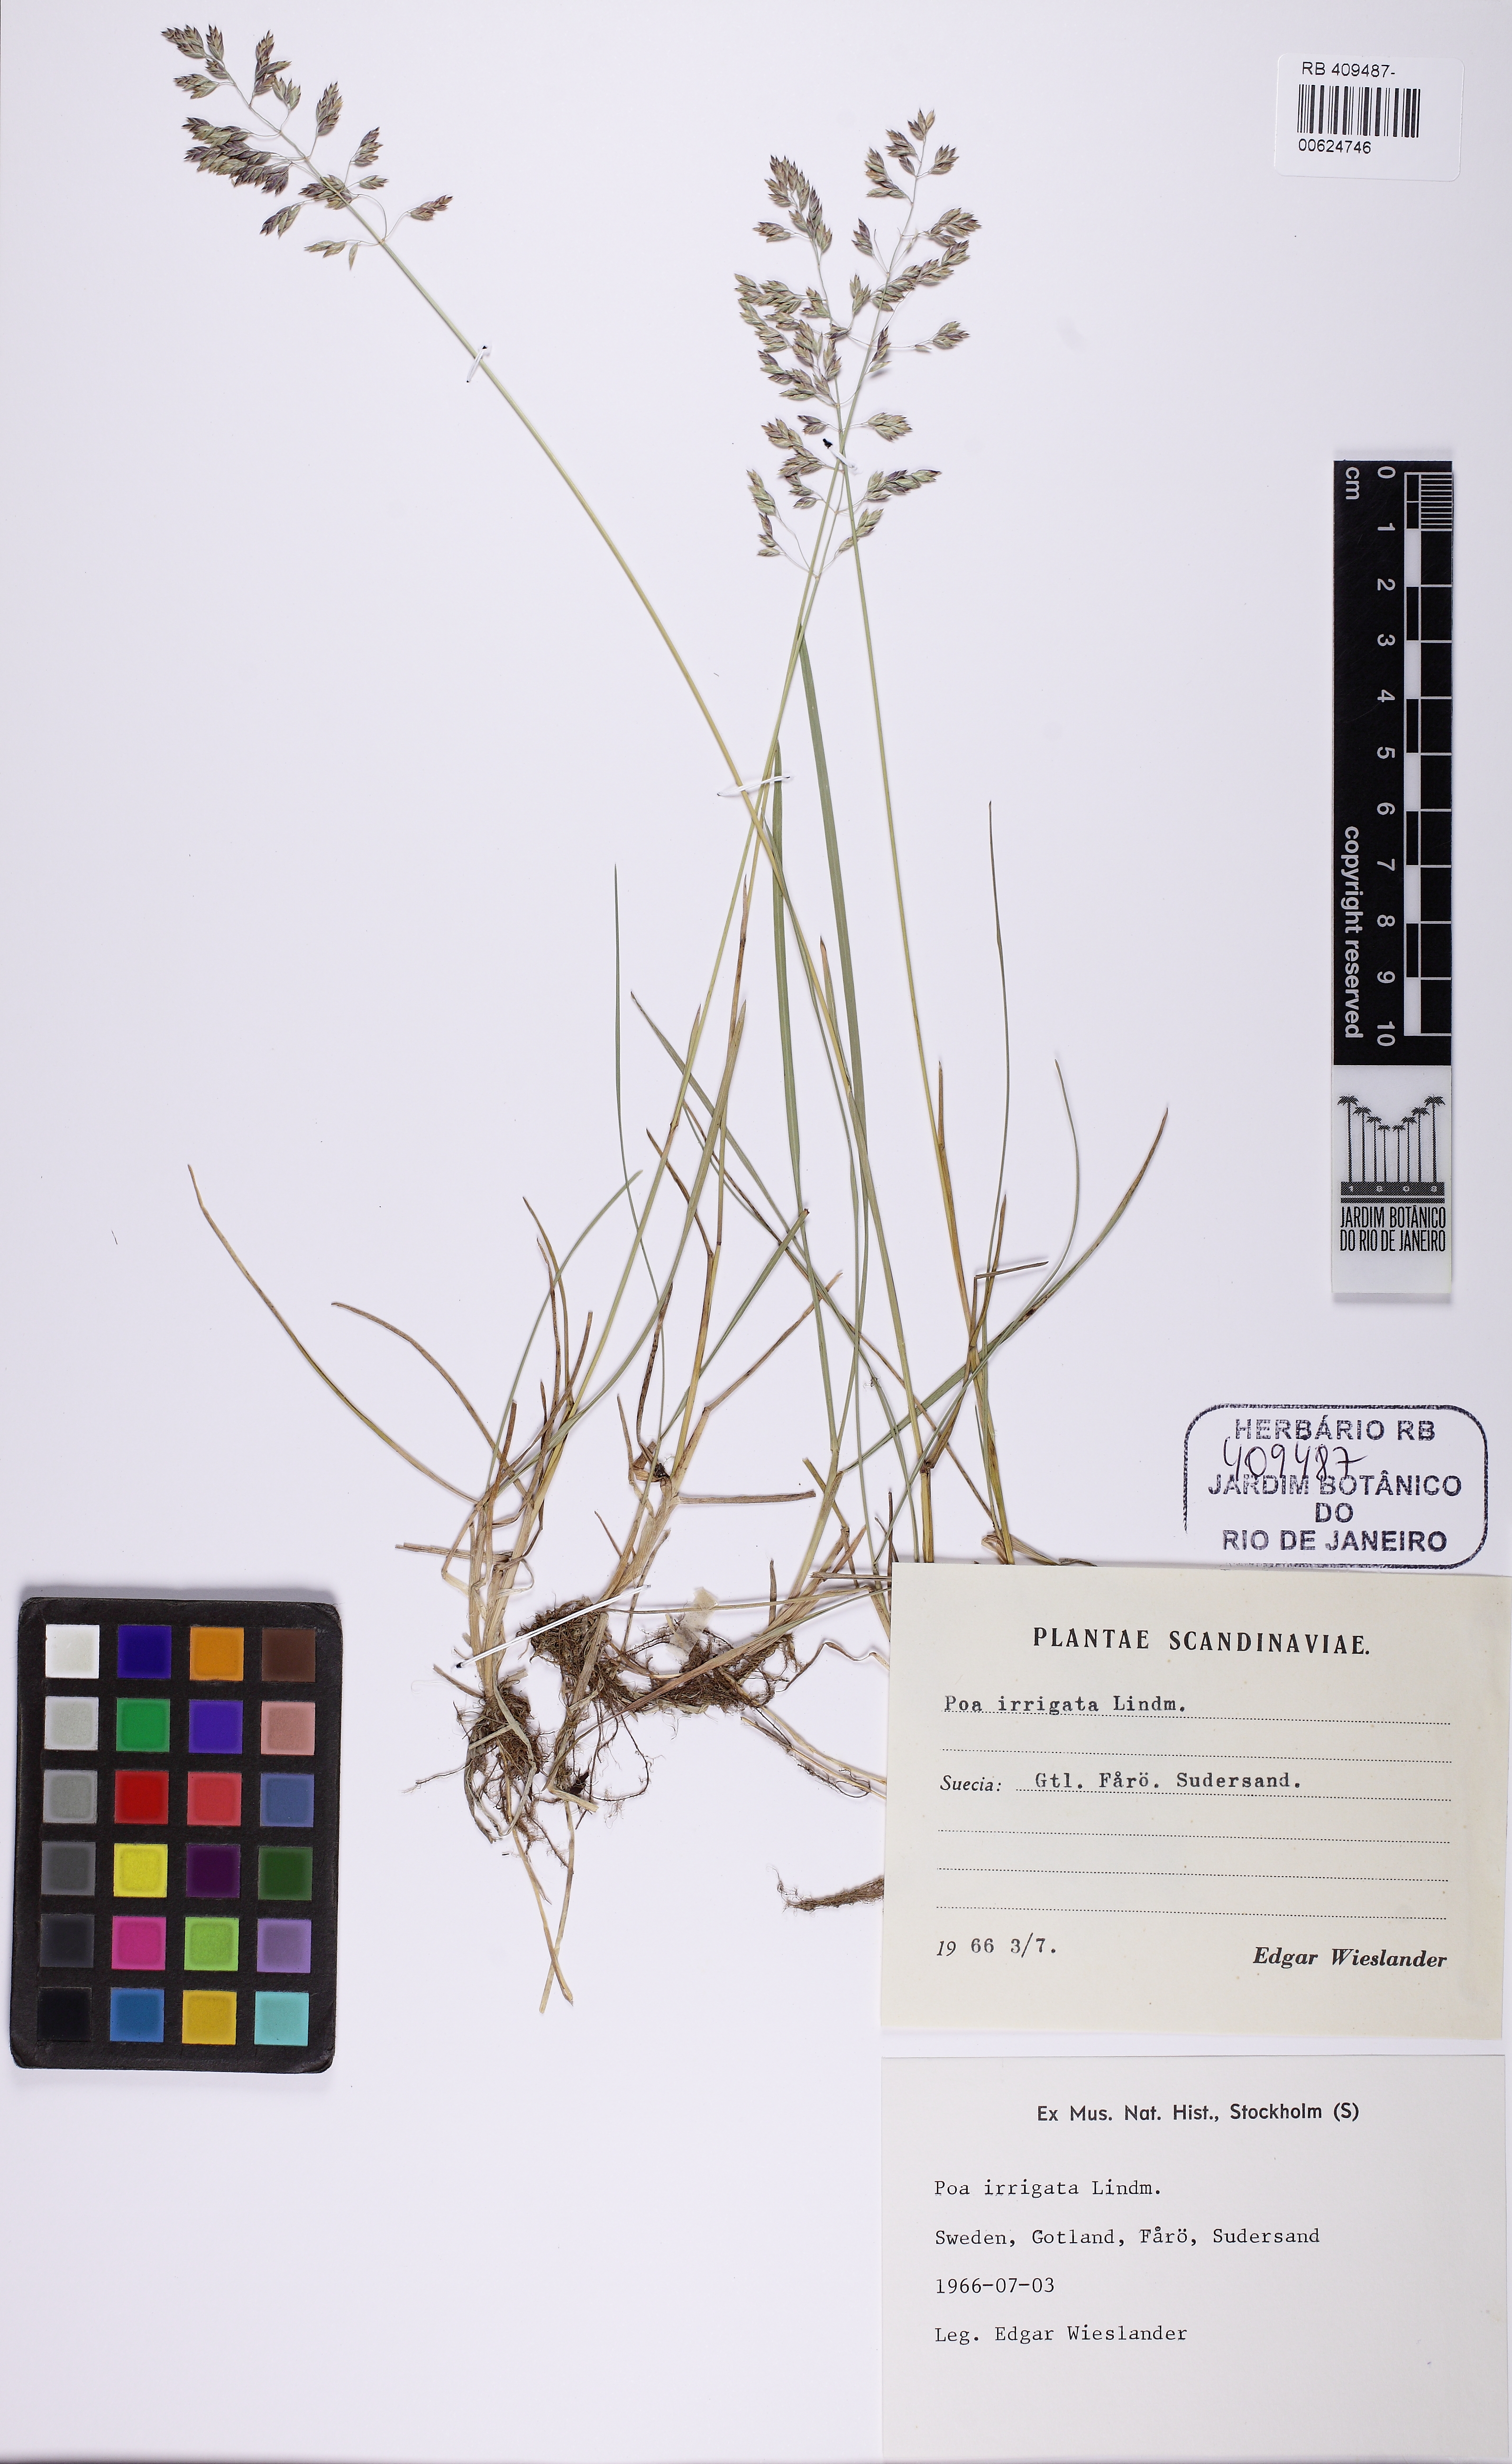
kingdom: Plantae
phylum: Tracheophyta
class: Liliopsida
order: Poales
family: Poaceae
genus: Poa
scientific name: Poa humilis
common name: Spreading meadow-grass
